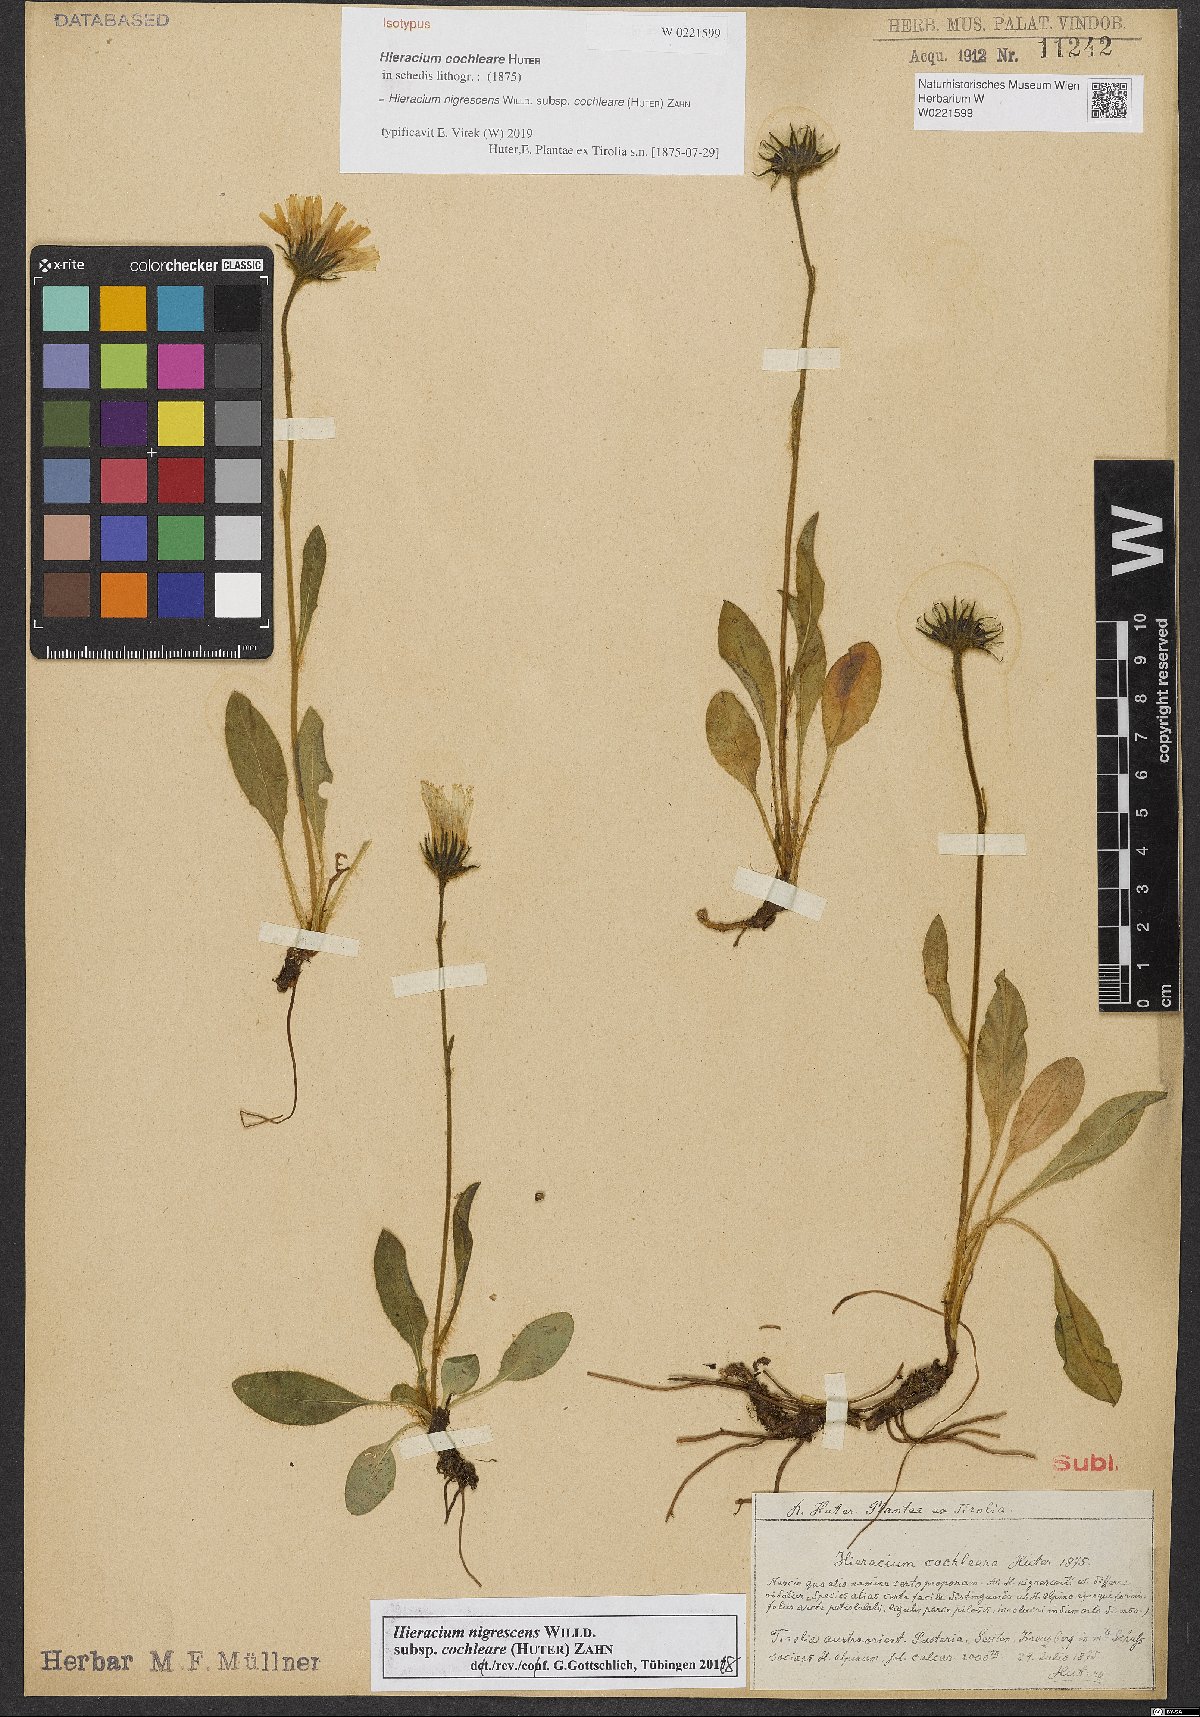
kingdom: Plantae
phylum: Tracheophyta
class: Magnoliopsida
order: Asterales
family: Asteraceae
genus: Hieracium
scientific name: Hieracium nigrescens
